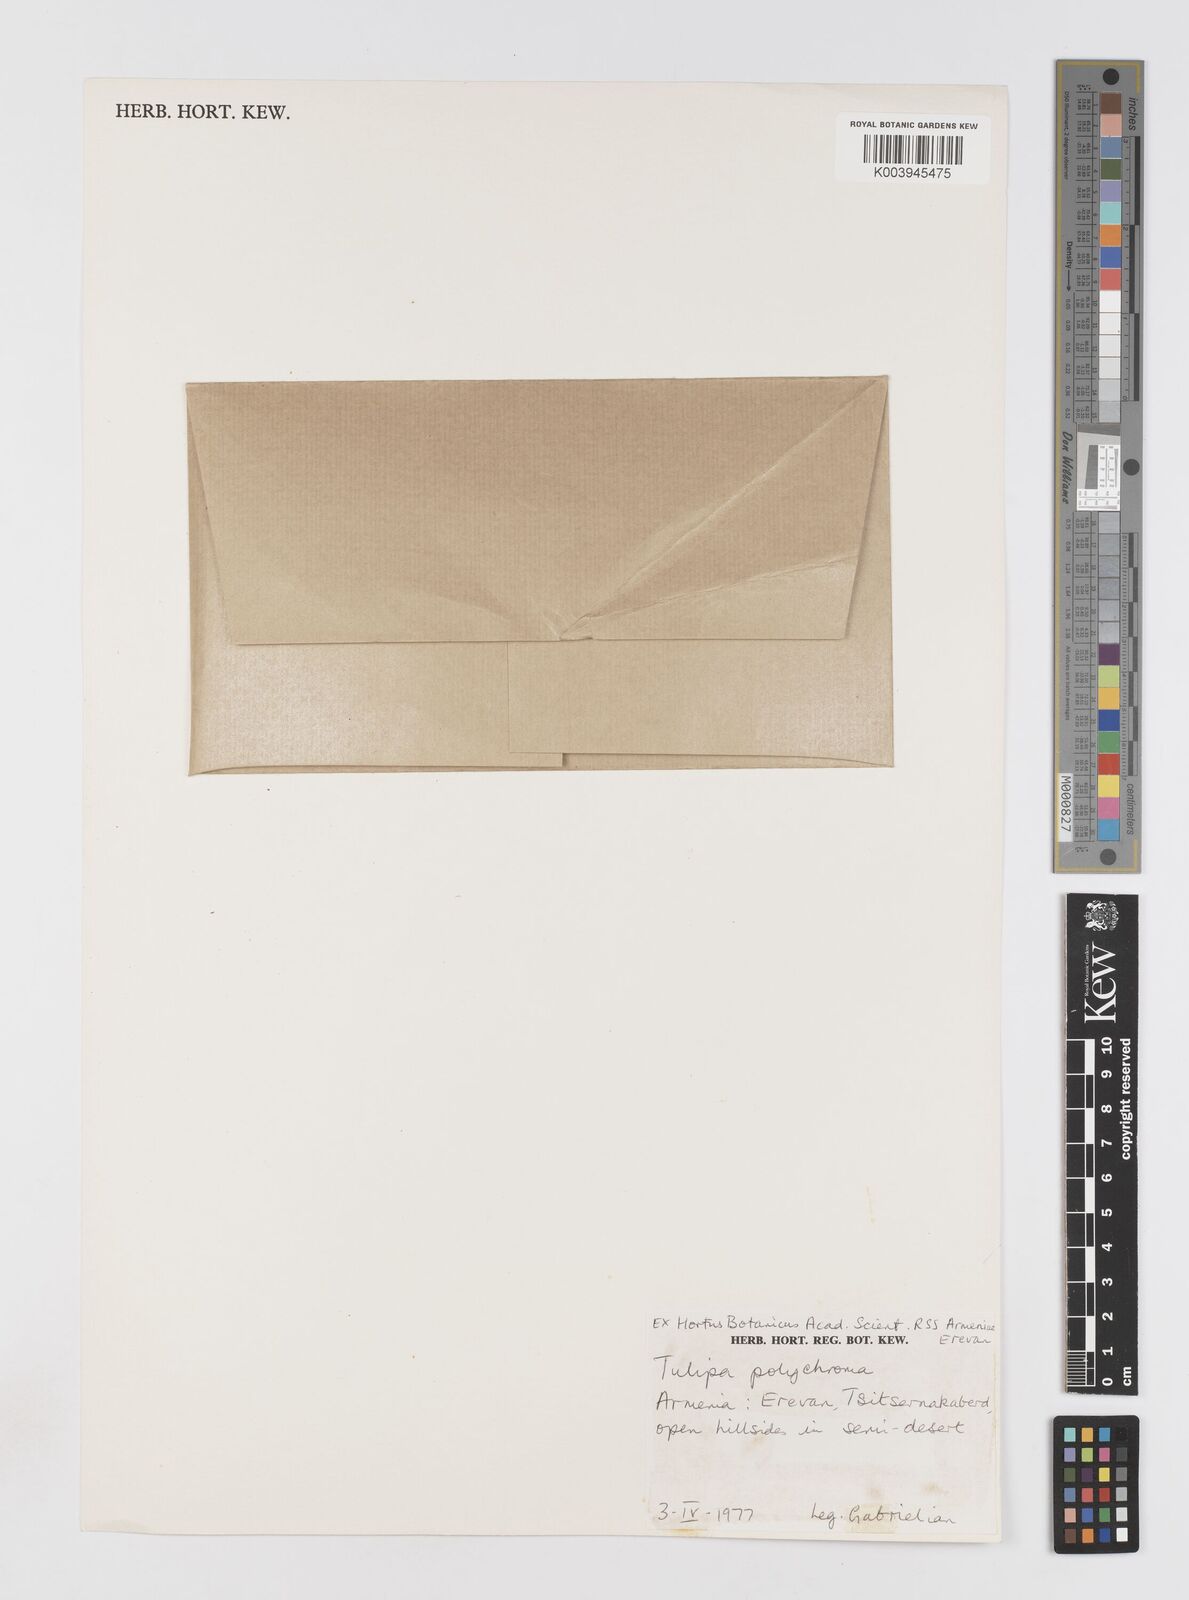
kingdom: Plantae
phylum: Tracheophyta
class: Liliopsida
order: Liliales
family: Liliaceae
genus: Tulipa
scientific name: Tulipa biflora
